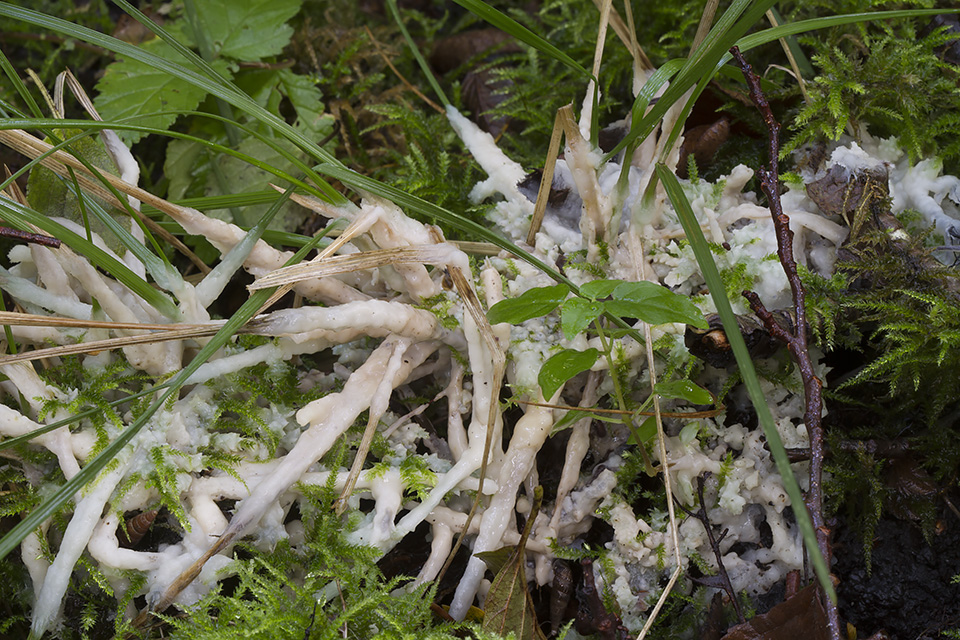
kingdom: Fungi
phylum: Basidiomycota
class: Agaricomycetes
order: Sebacinales
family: Sebacinaceae
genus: Sebacina
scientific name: Sebacina incrustans
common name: krybende bævretalg
